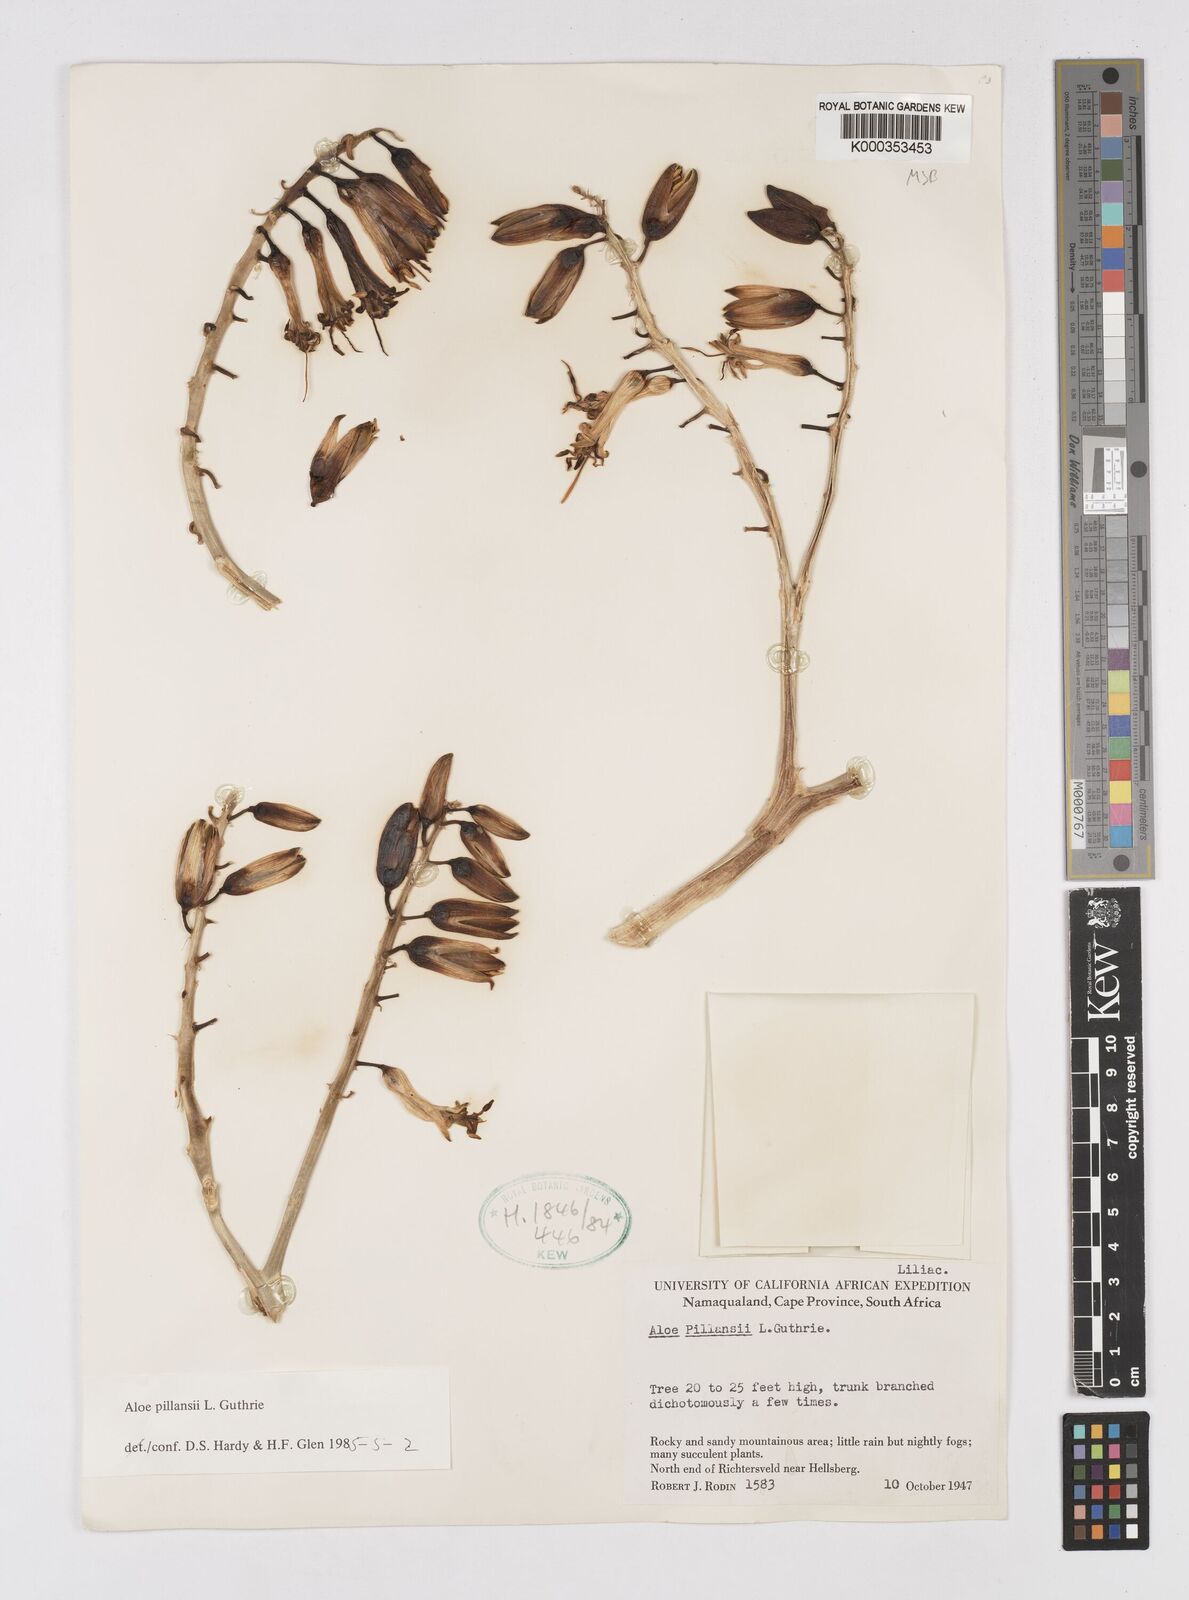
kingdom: Plantae
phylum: Tracheophyta
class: Liliopsida
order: Asparagales
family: Asphodelaceae
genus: Aloidendron
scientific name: Aloidendron pillansii
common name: Bastard quiver tree
